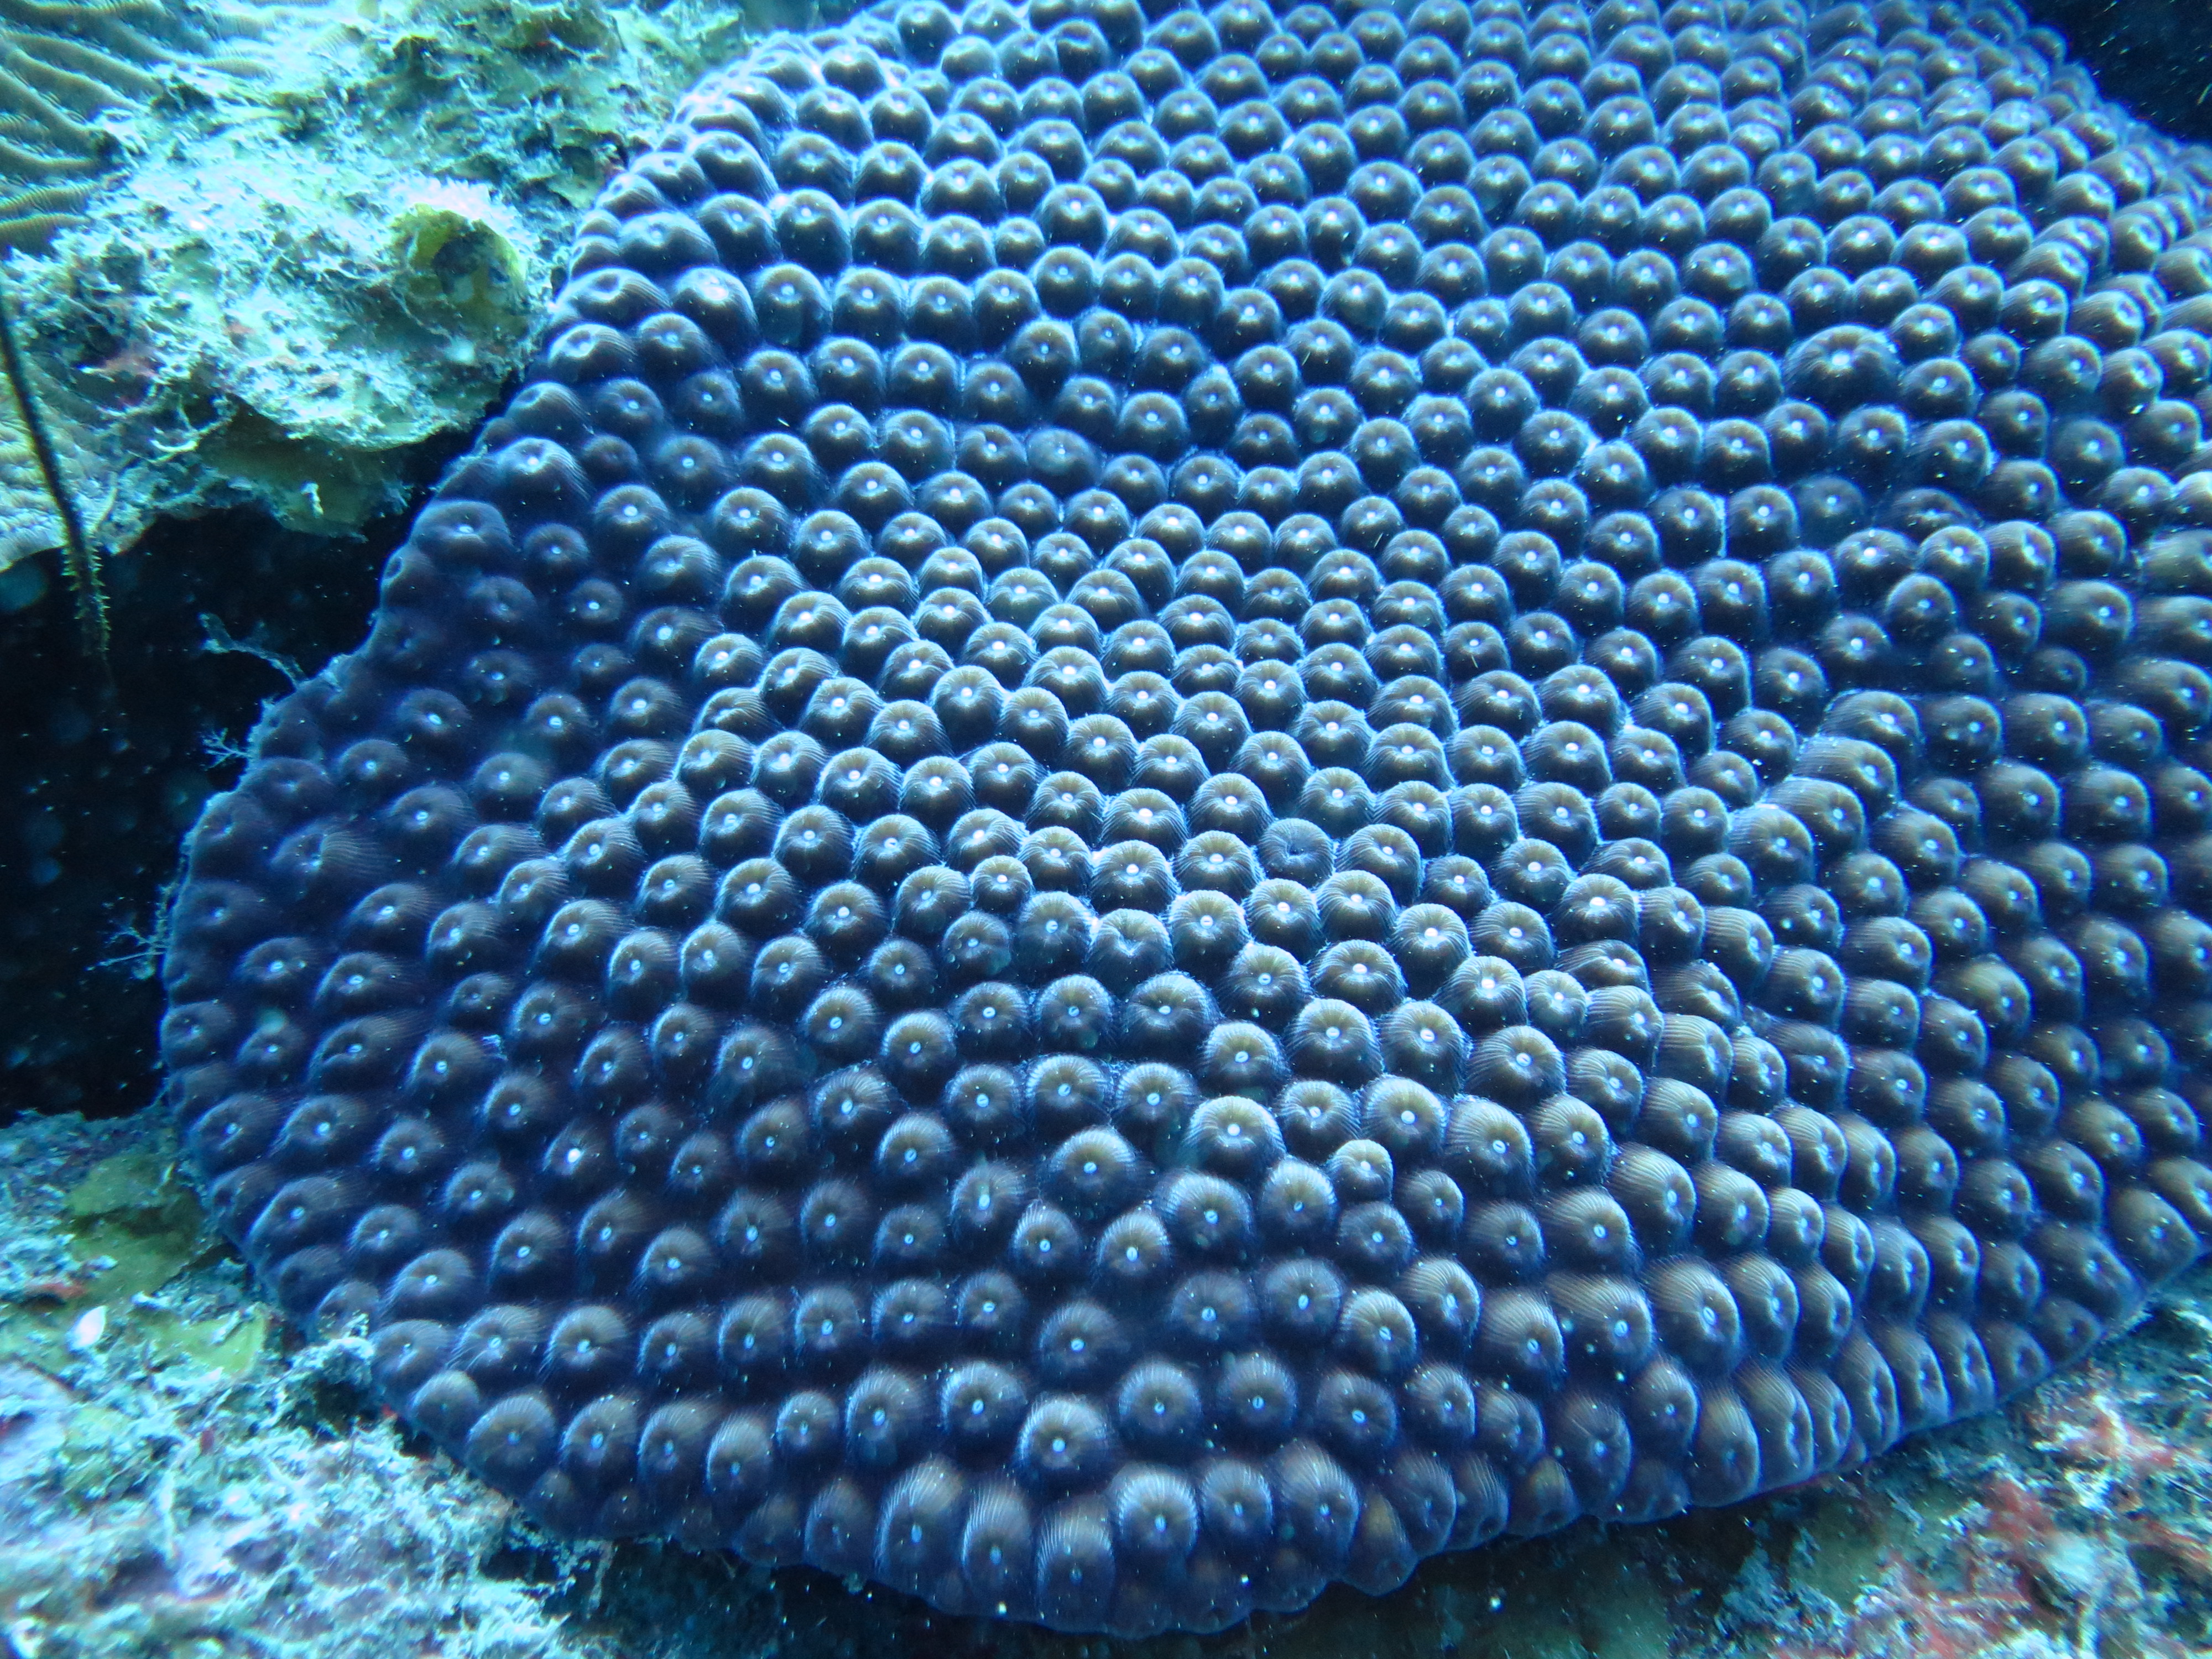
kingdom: Animalia
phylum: Cnidaria
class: Anthozoa
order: Scleractinia
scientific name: Scleractinia
